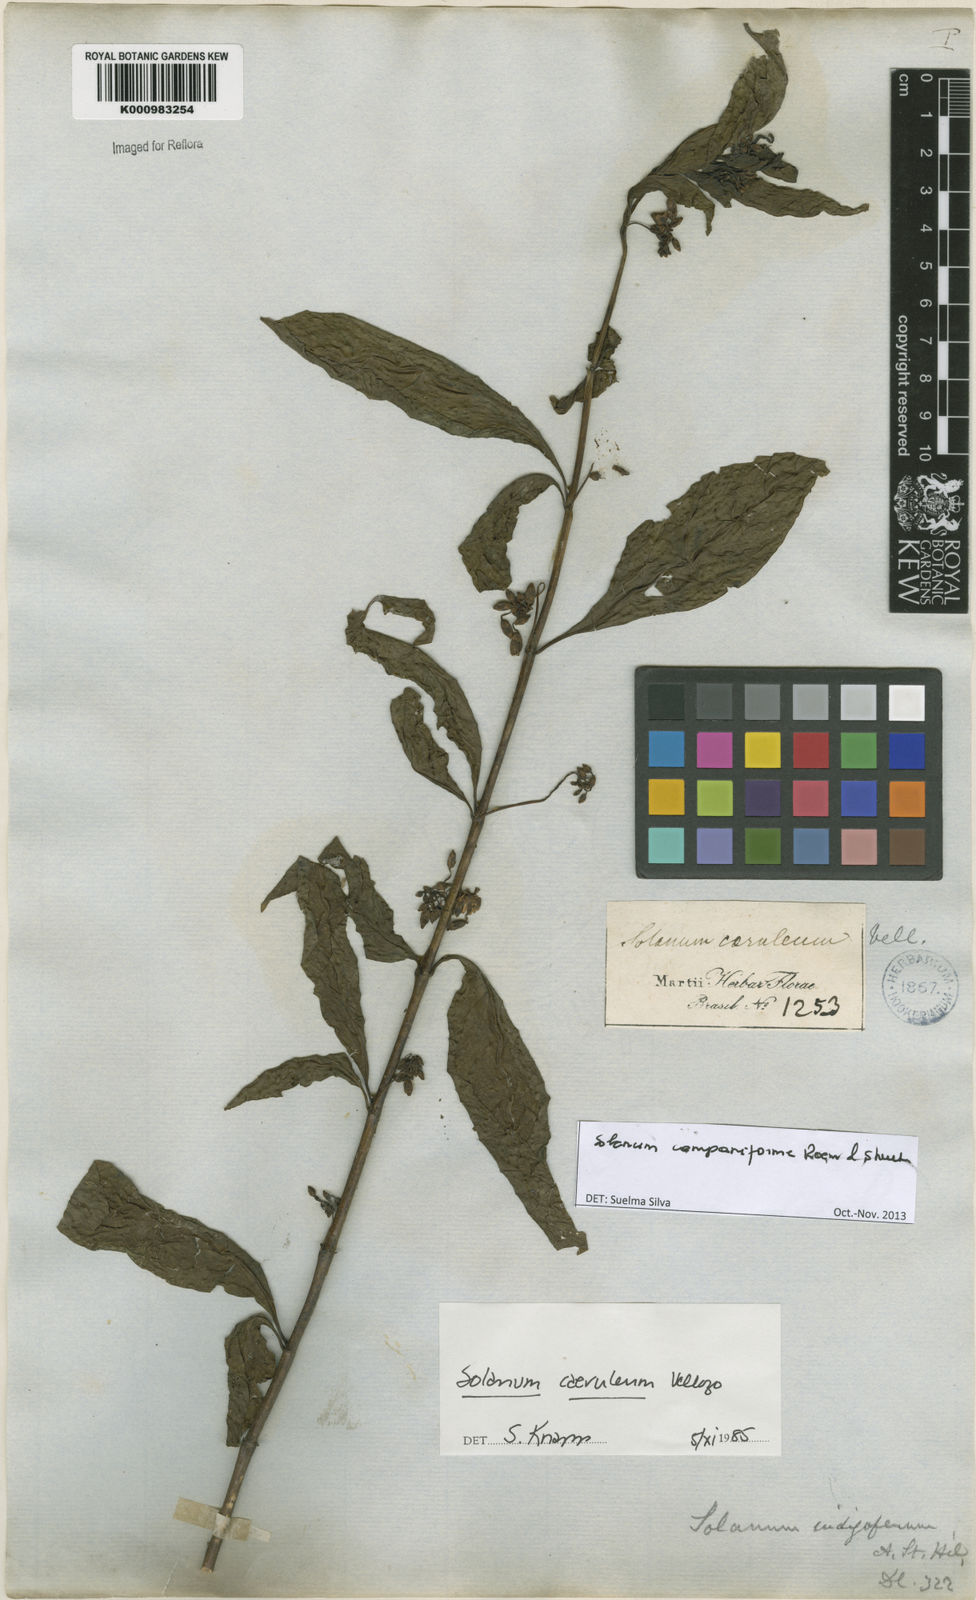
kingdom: Plantae
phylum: Tracheophyta
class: Magnoliopsida
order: Solanales
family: Solanaceae
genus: Solanum
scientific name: Solanum campaniforme
